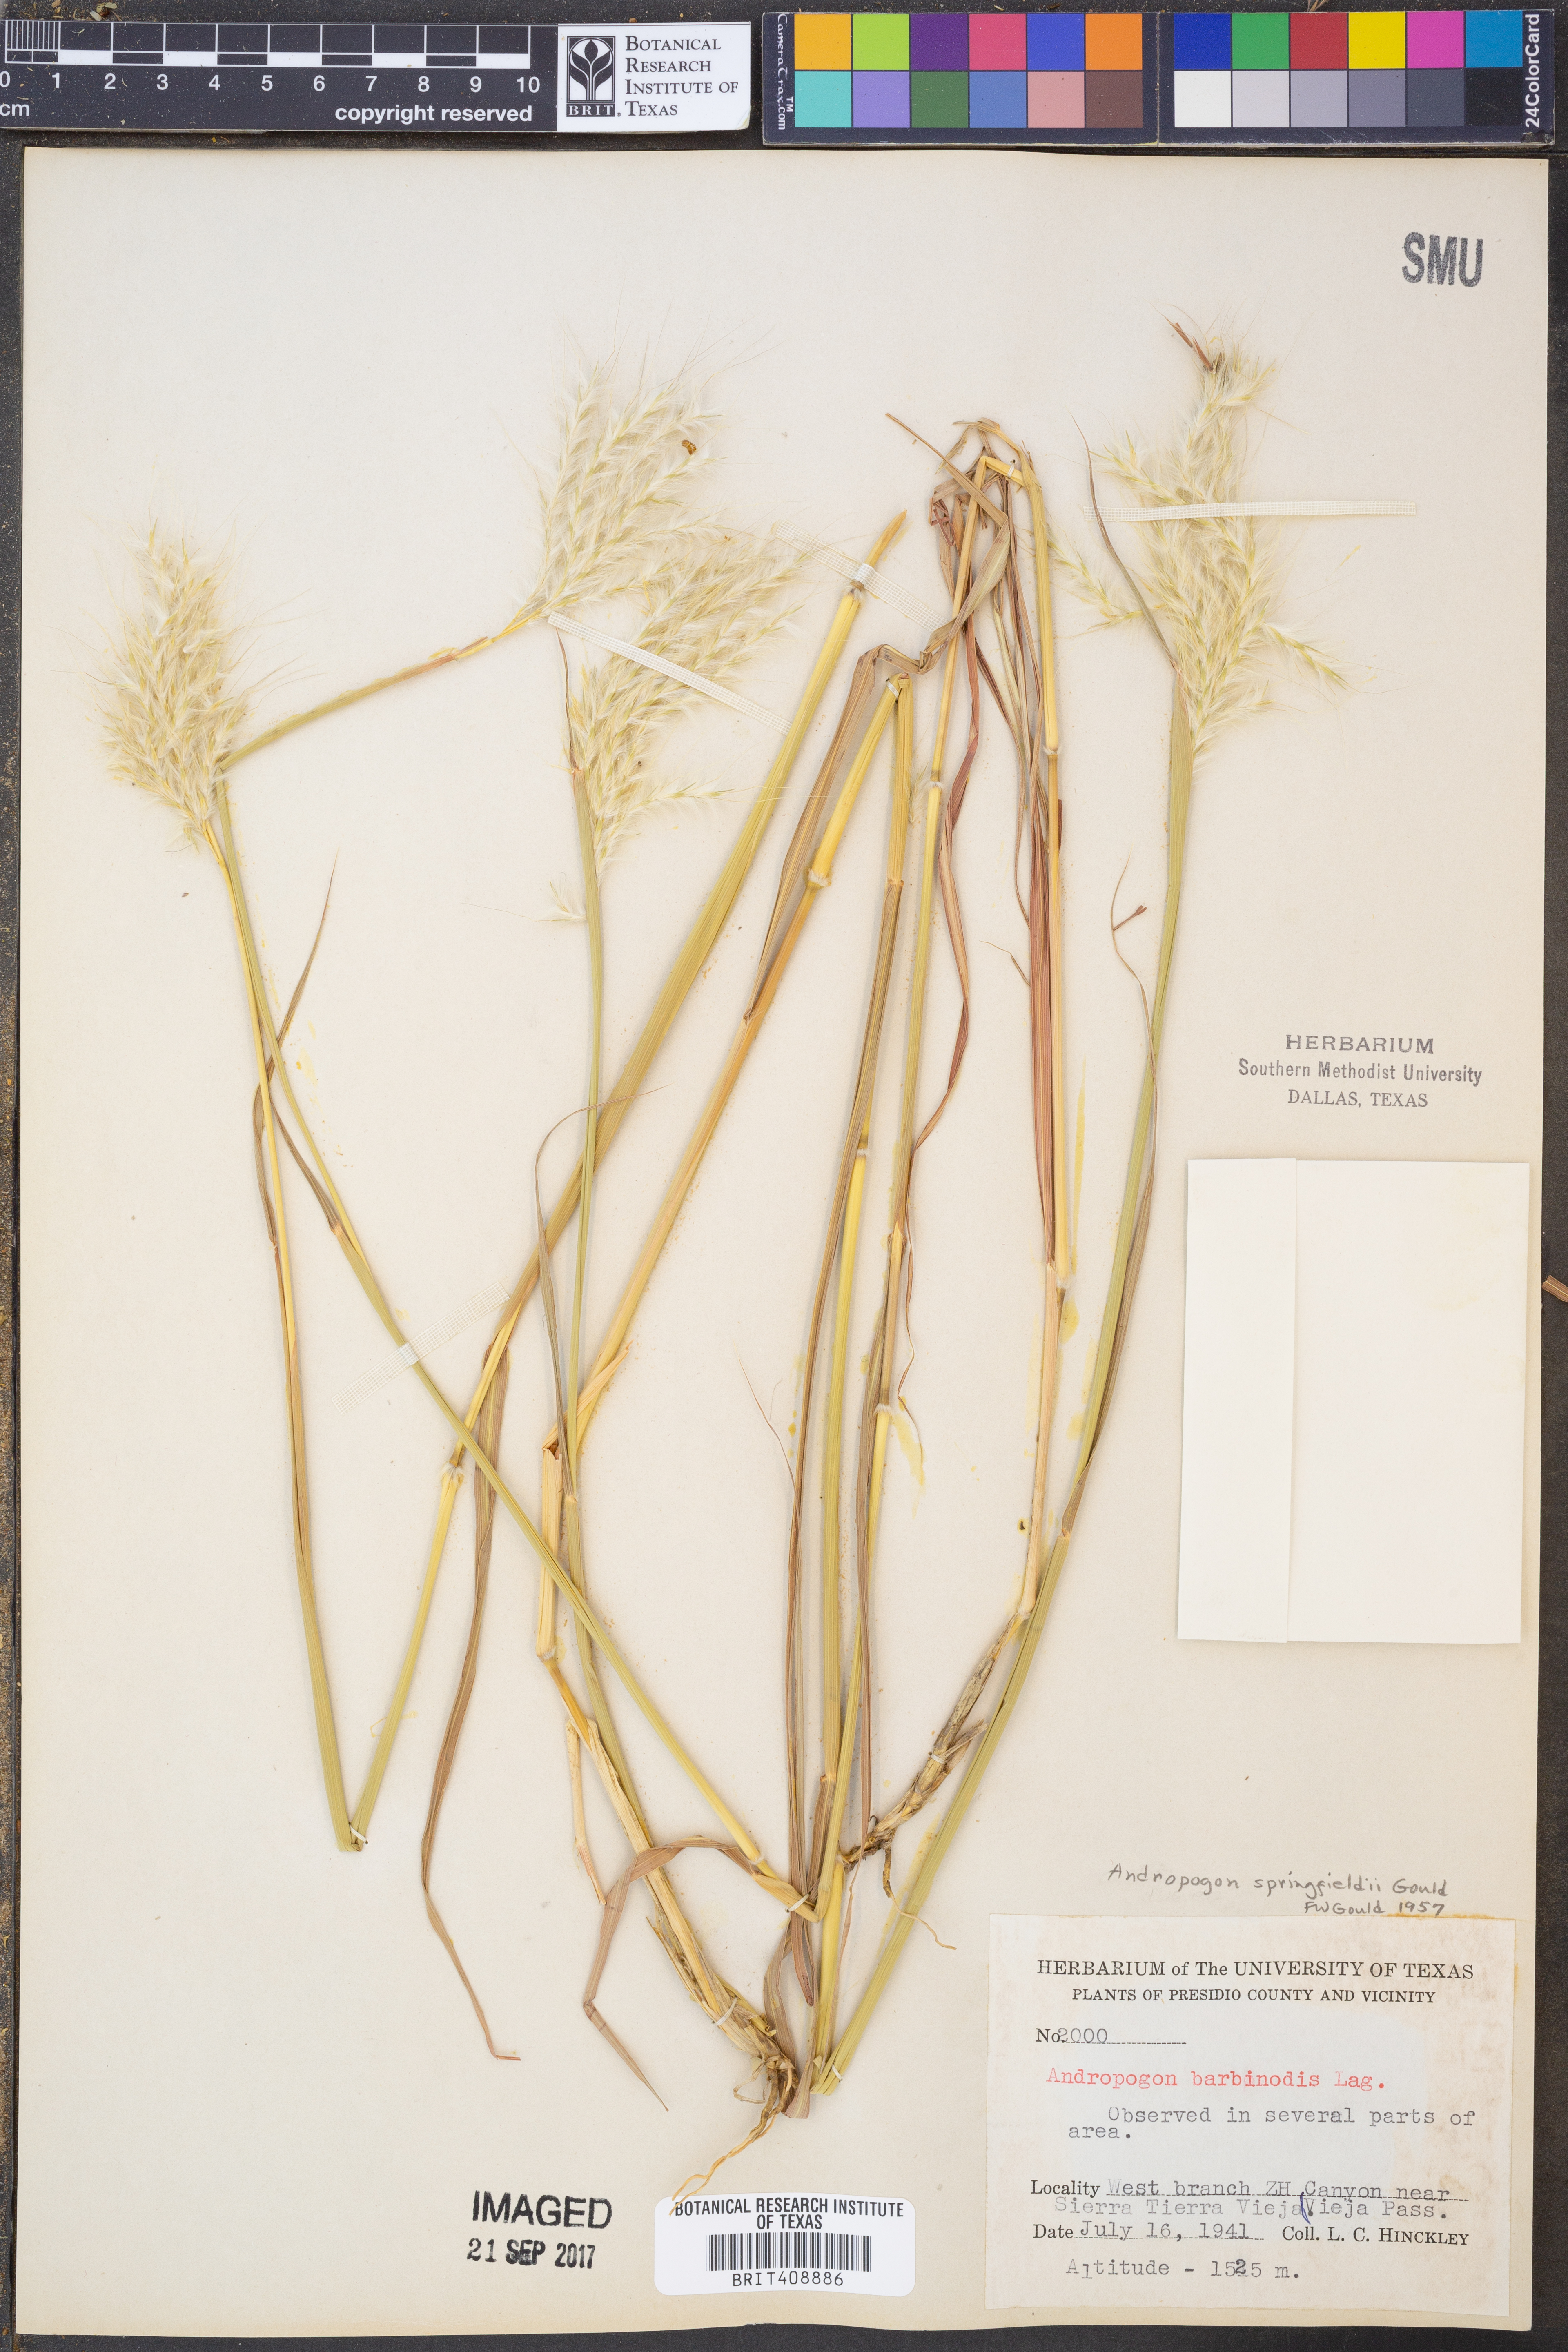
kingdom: Plantae
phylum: Tracheophyta
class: Liliopsida
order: Poales
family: Poaceae
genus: Bothriochloa
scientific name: Bothriochloa springfieldii
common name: Springfield bluestem
